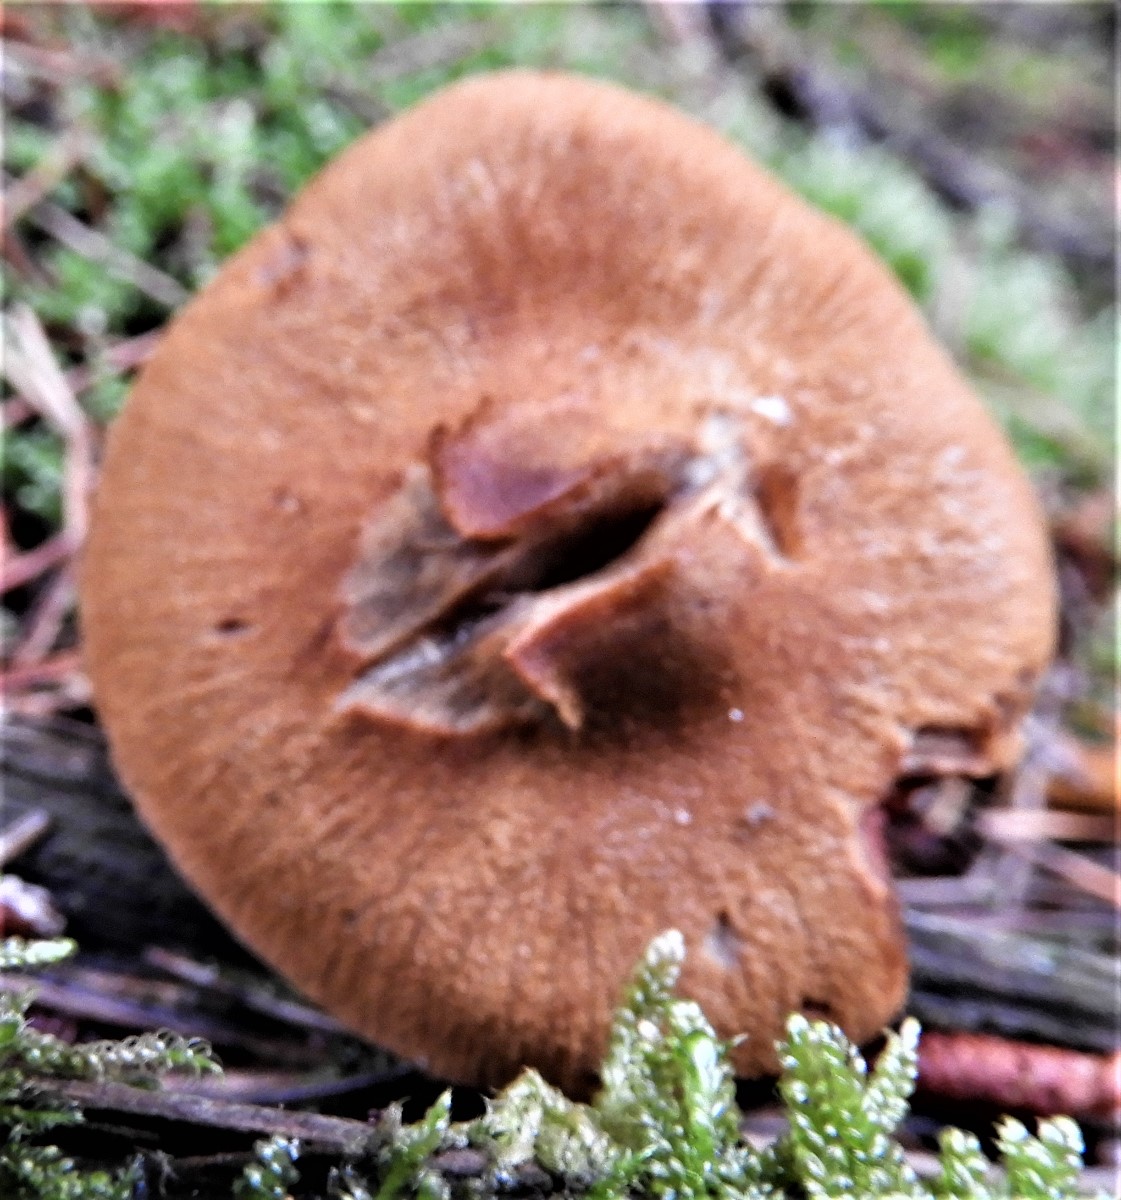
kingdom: Fungi
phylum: Basidiomycota
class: Agaricomycetes
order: Agaricales
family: Cortinariaceae
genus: Cortinarius
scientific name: Cortinarius
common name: cinnoberbladet slørhat
